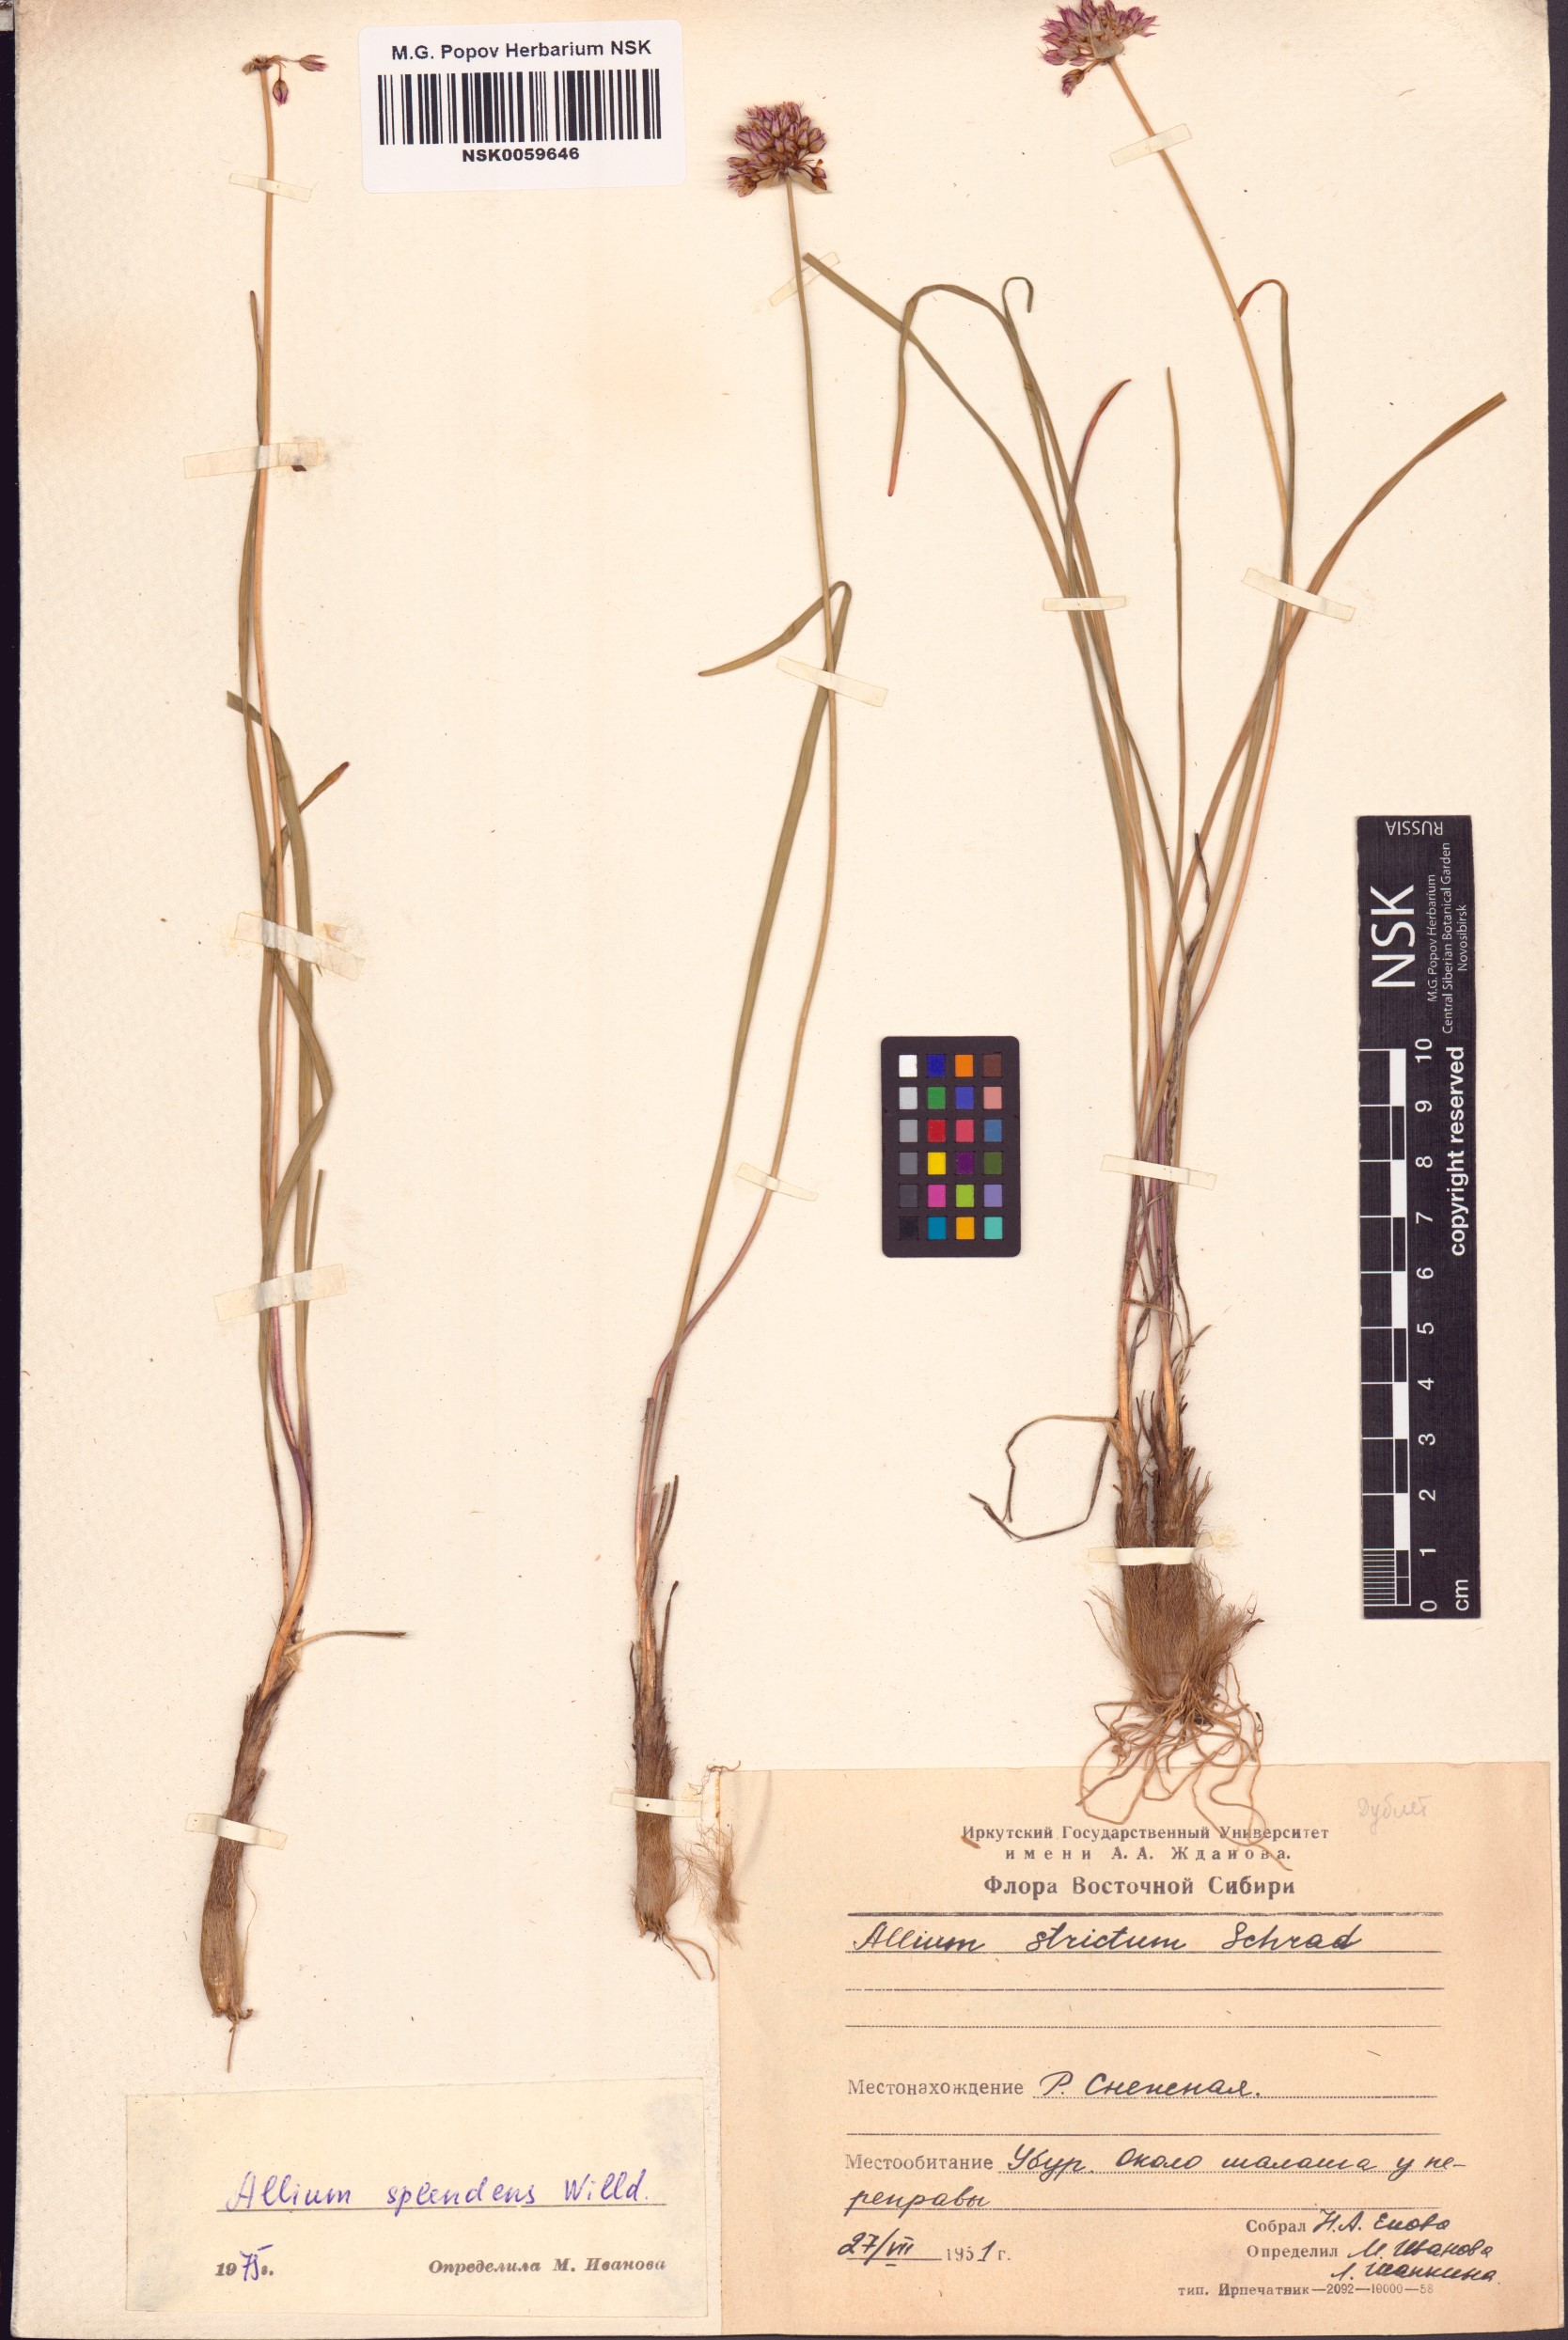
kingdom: Plantae
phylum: Tracheophyta
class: Liliopsida
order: Asparagales
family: Amaryllidaceae
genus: Allium
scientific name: Allium splendens
